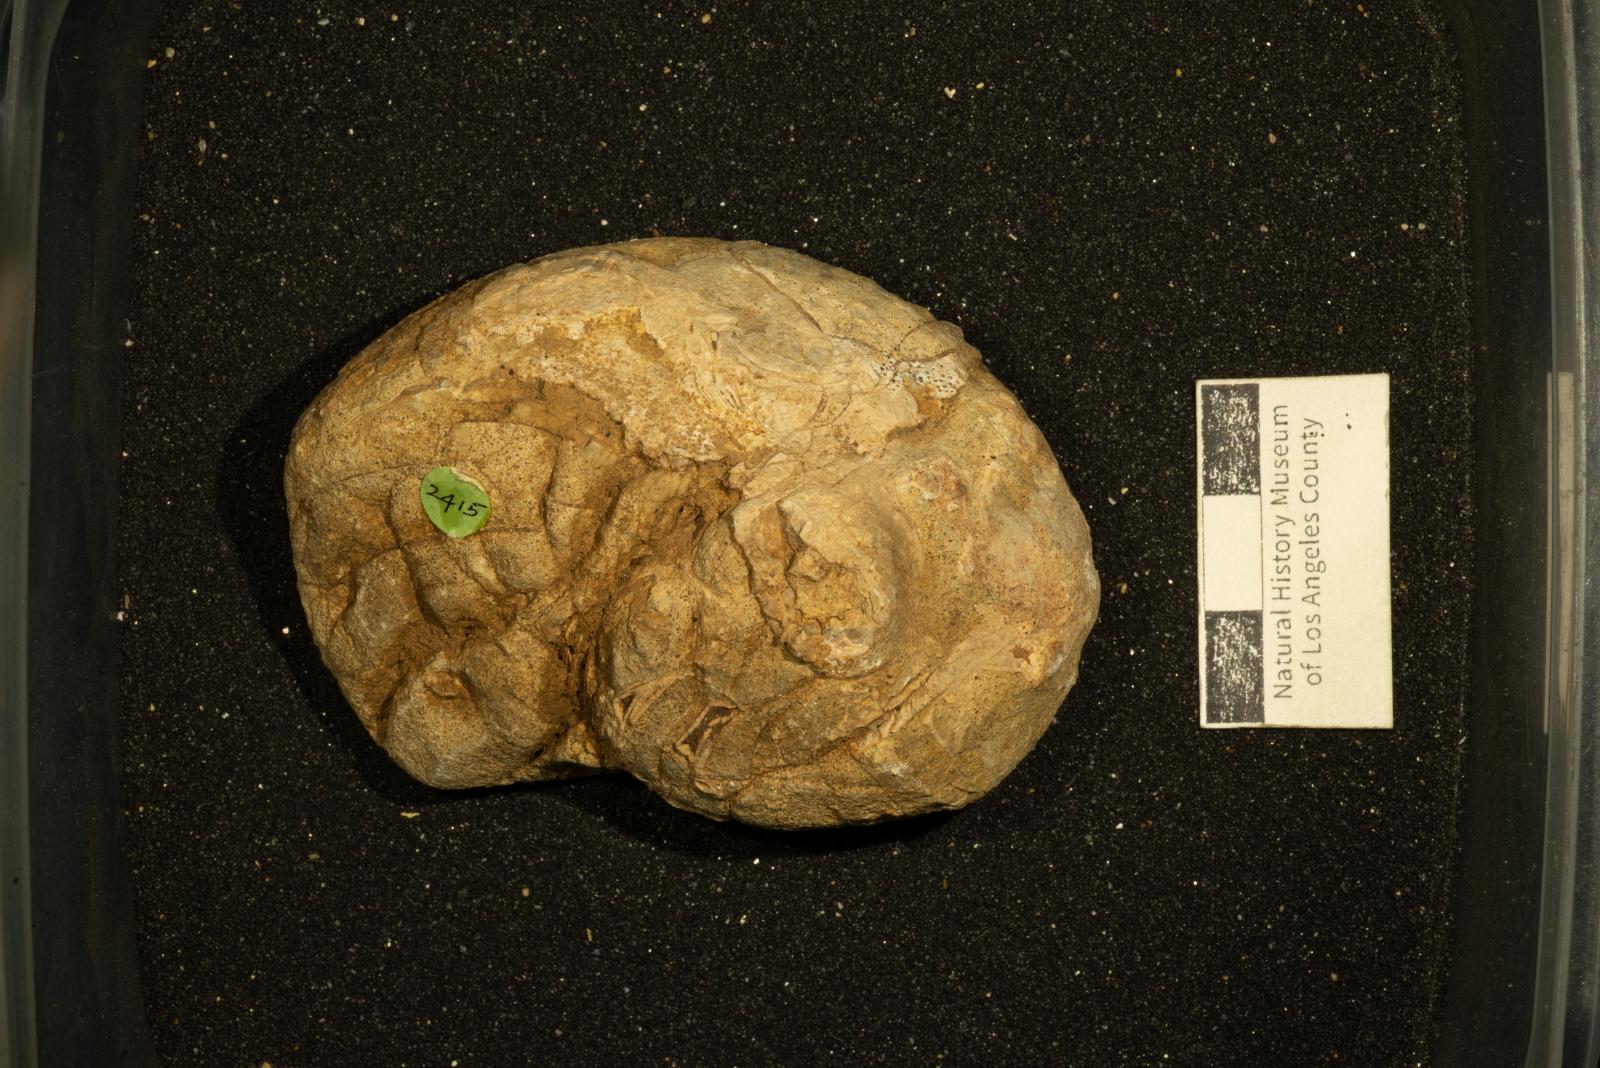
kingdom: Animalia
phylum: Mollusca
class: Cephalopoda
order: Nautilida
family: Cymatoceratidae
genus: Anglonautilus
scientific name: Anglonautilus catarinae
